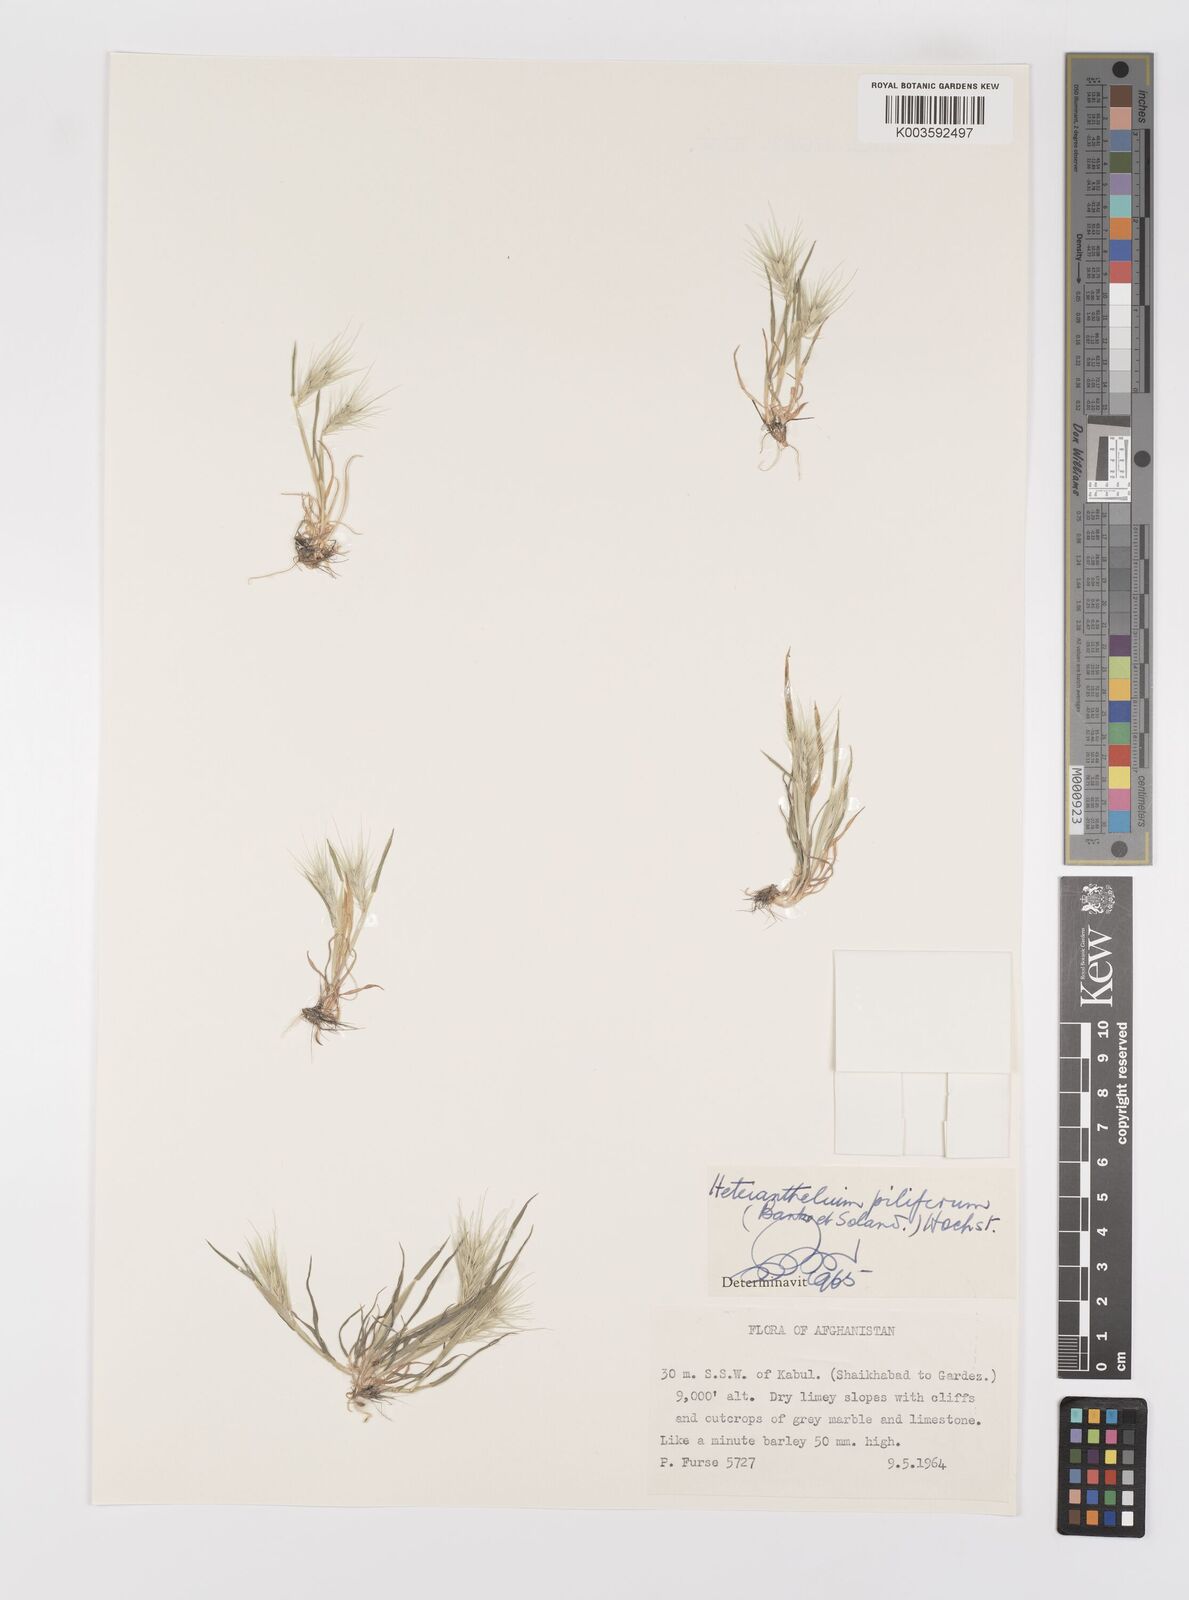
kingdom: Plantae
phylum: Tracheophyta
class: Liliopsida
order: Poales
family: Poaceae
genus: Heteranthelium
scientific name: Heteranthelium piliferum
